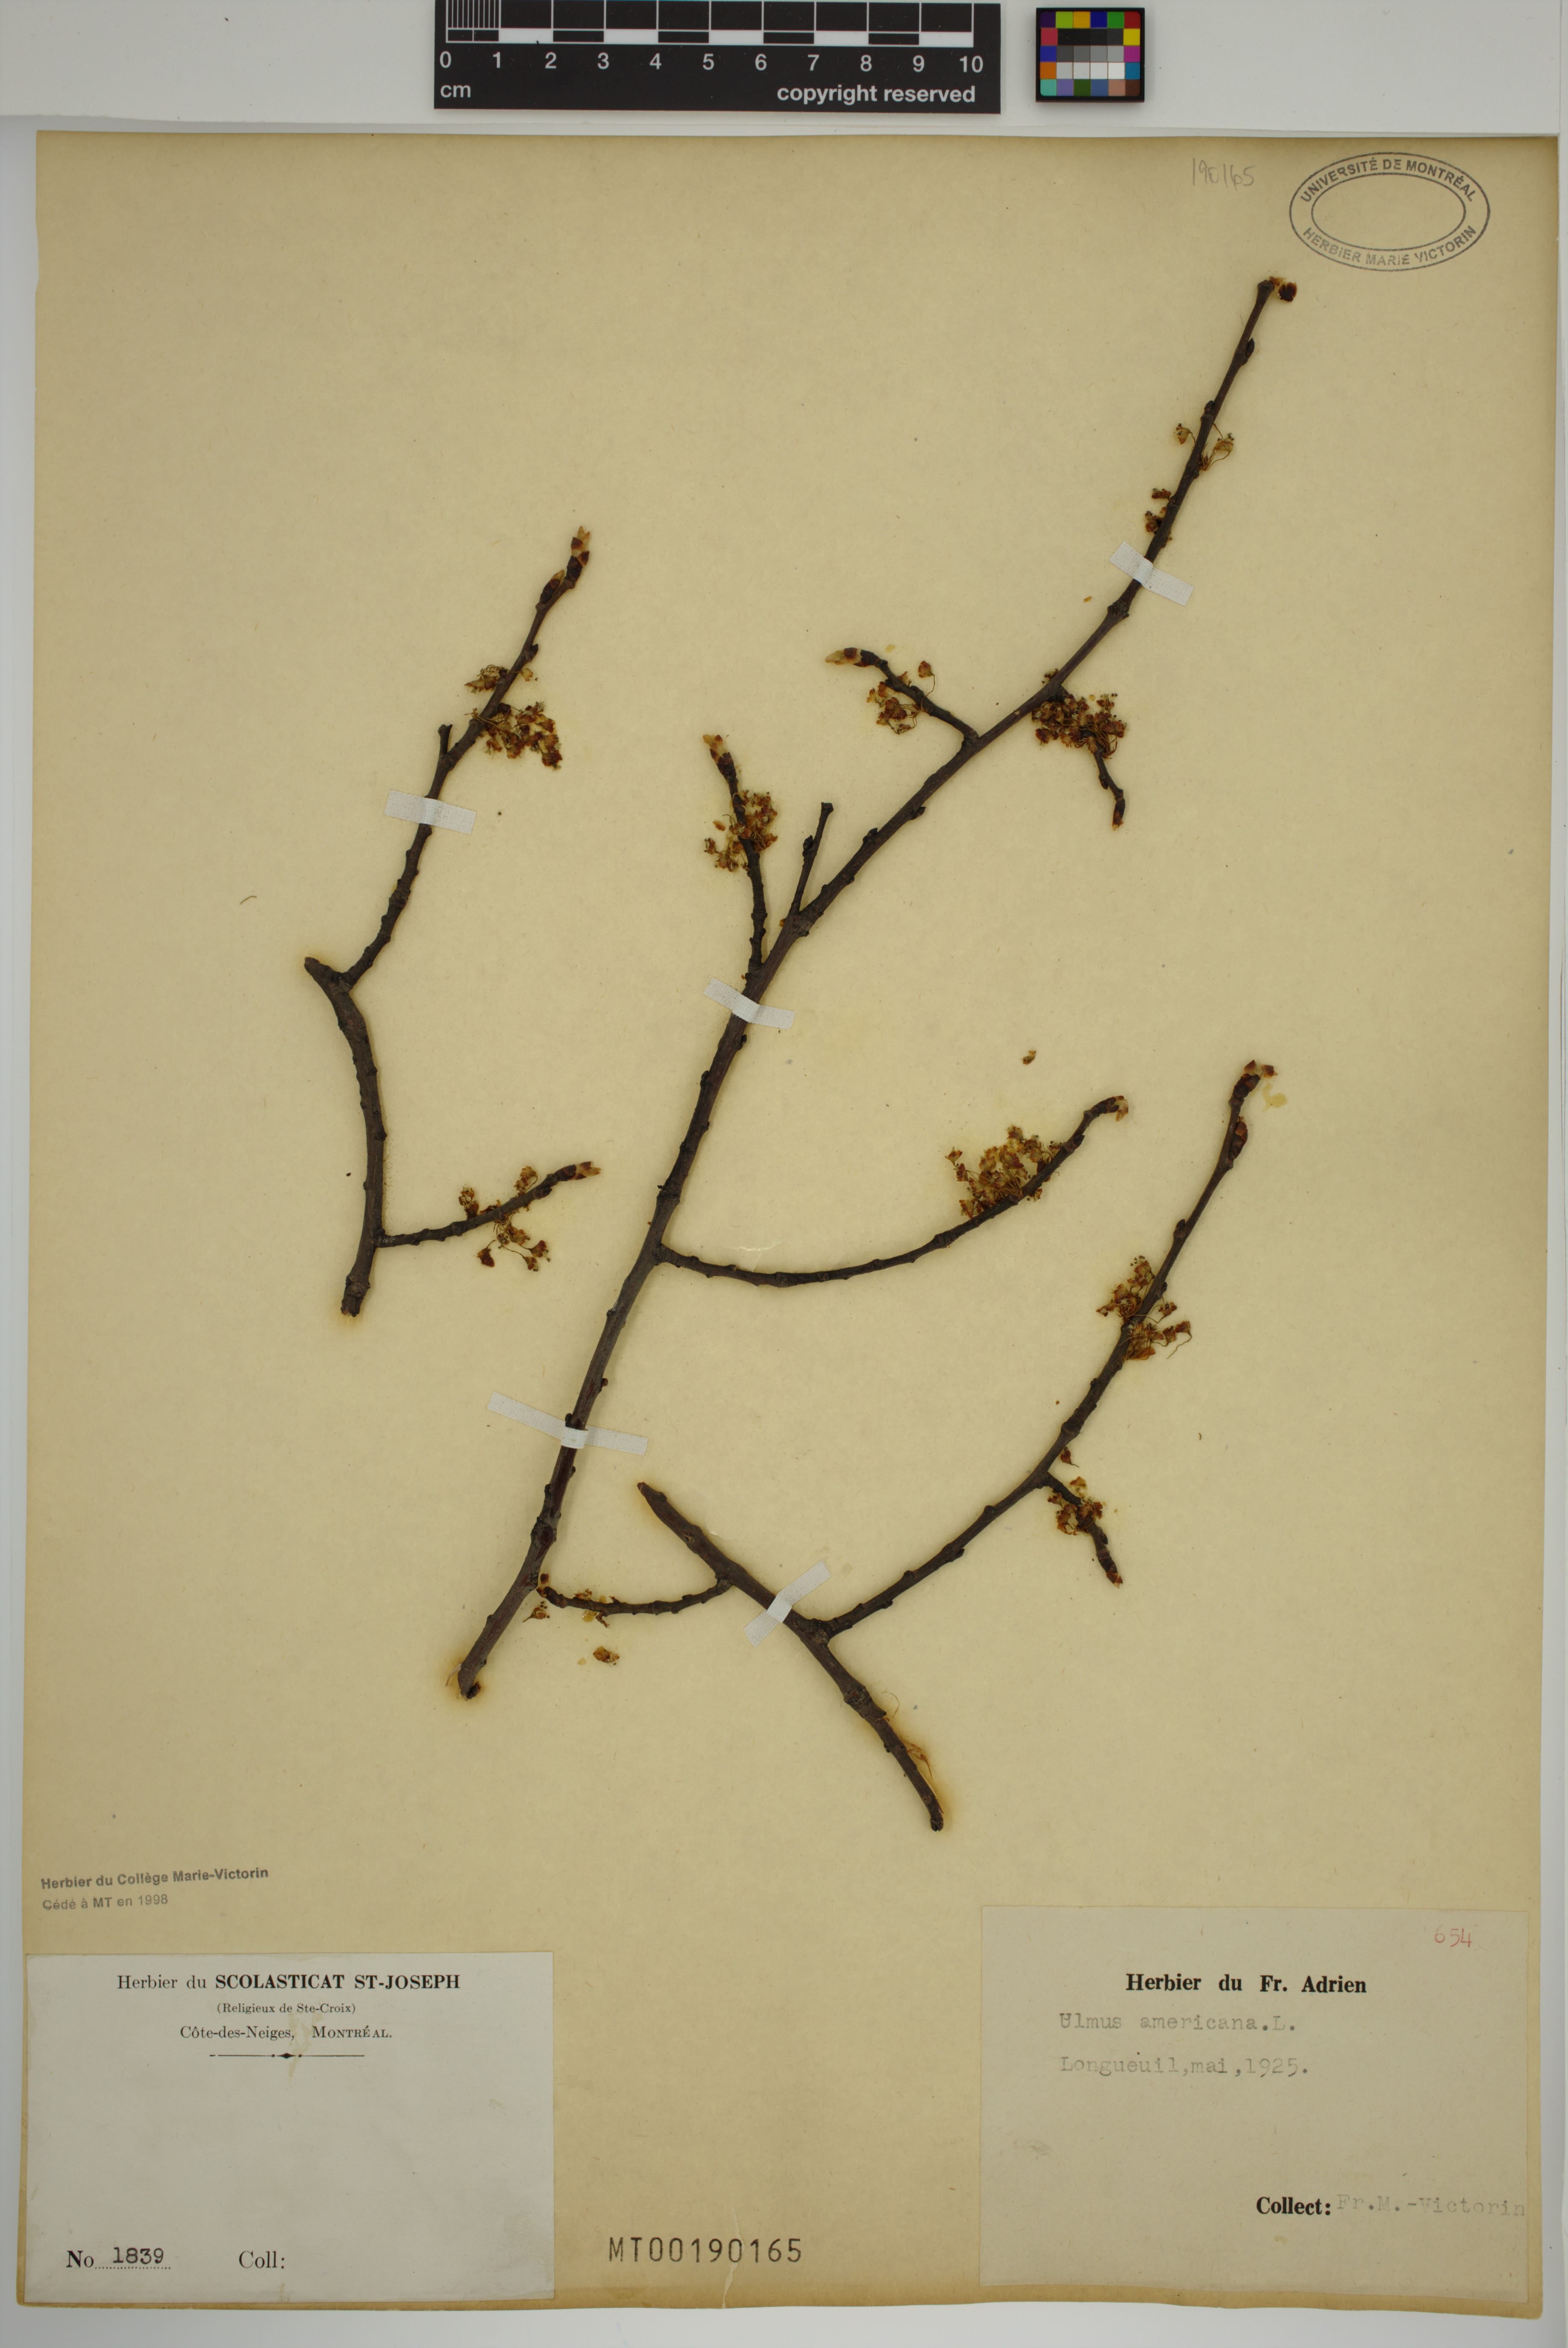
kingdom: Plantae
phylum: Tracheophyta
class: Magnoliopsida
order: Rosales
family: Ulmaceae
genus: Ulmus
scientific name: Ulmus americana
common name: American elm
